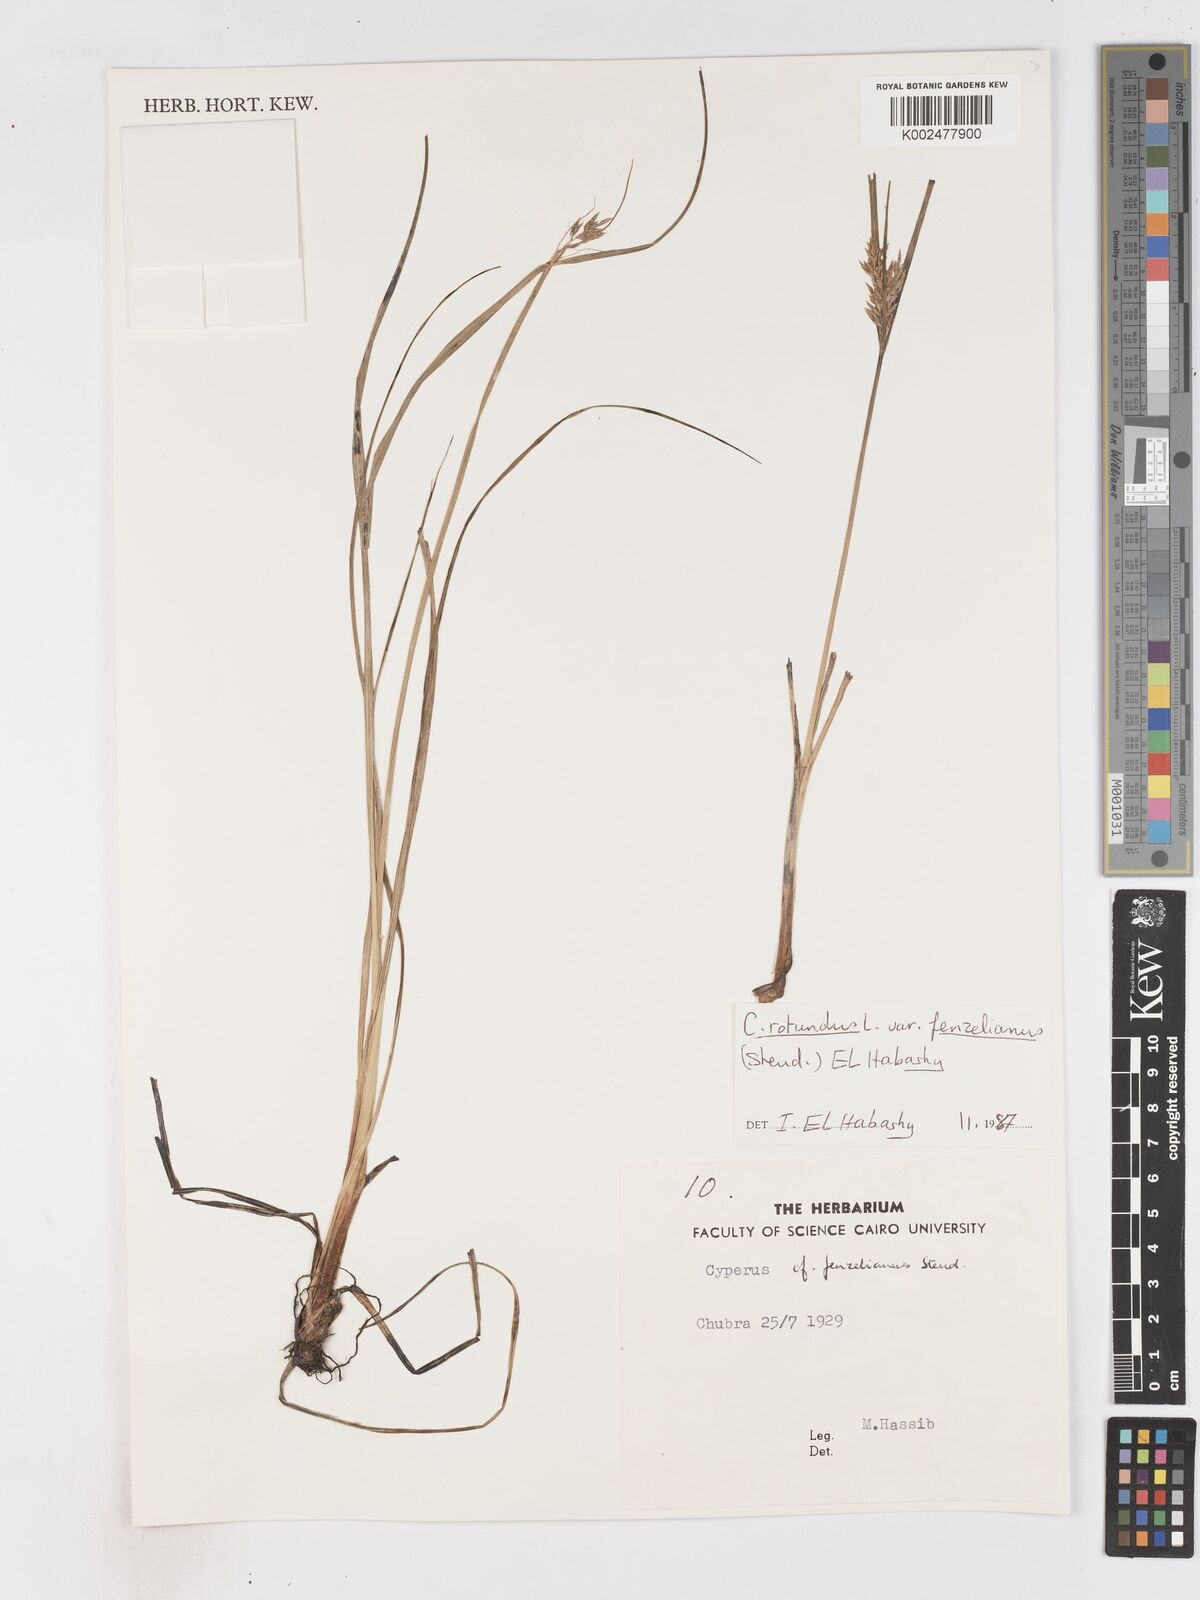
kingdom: Plantae
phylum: Tracheophyta
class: Liliopsida
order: Poales
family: Cyperaceae
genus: Cyperus
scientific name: Cyperus longus
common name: Galingale
